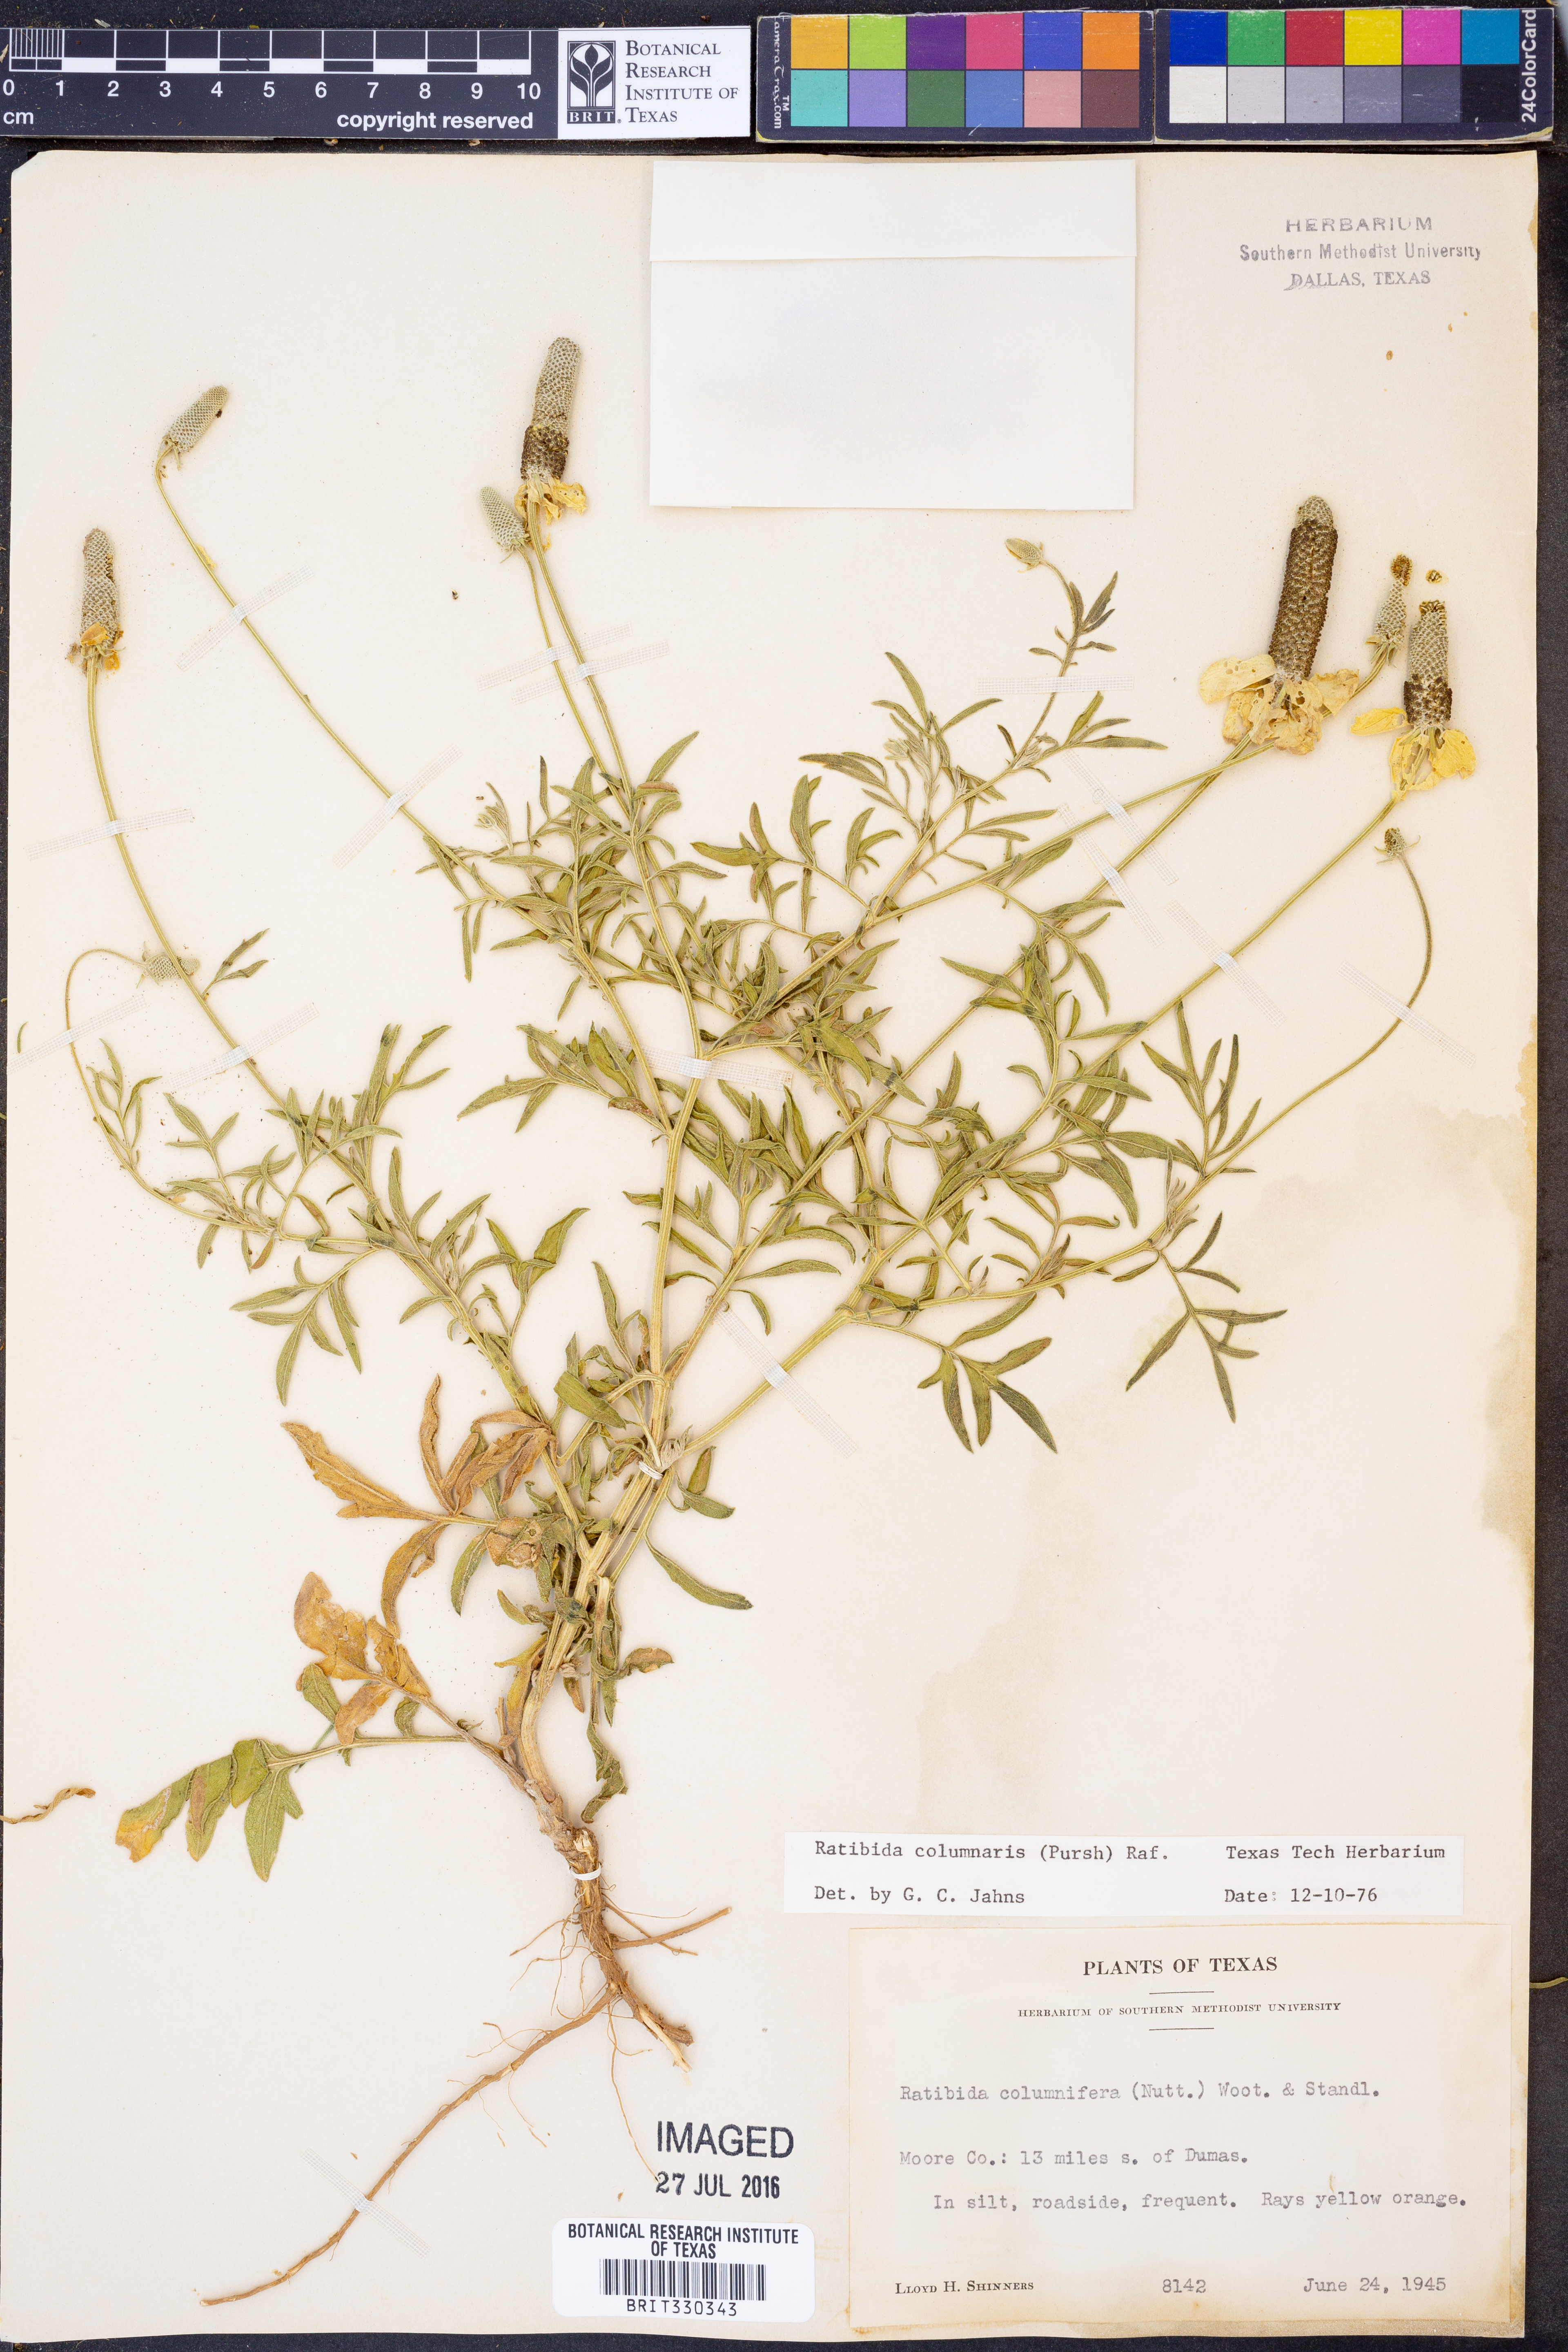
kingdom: Plantae
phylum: Tracheophyta
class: Magnoliopsida
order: Asterales
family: Asteraceae
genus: Ratibida
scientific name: Ratibida columnifera
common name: Prairie coneflower
